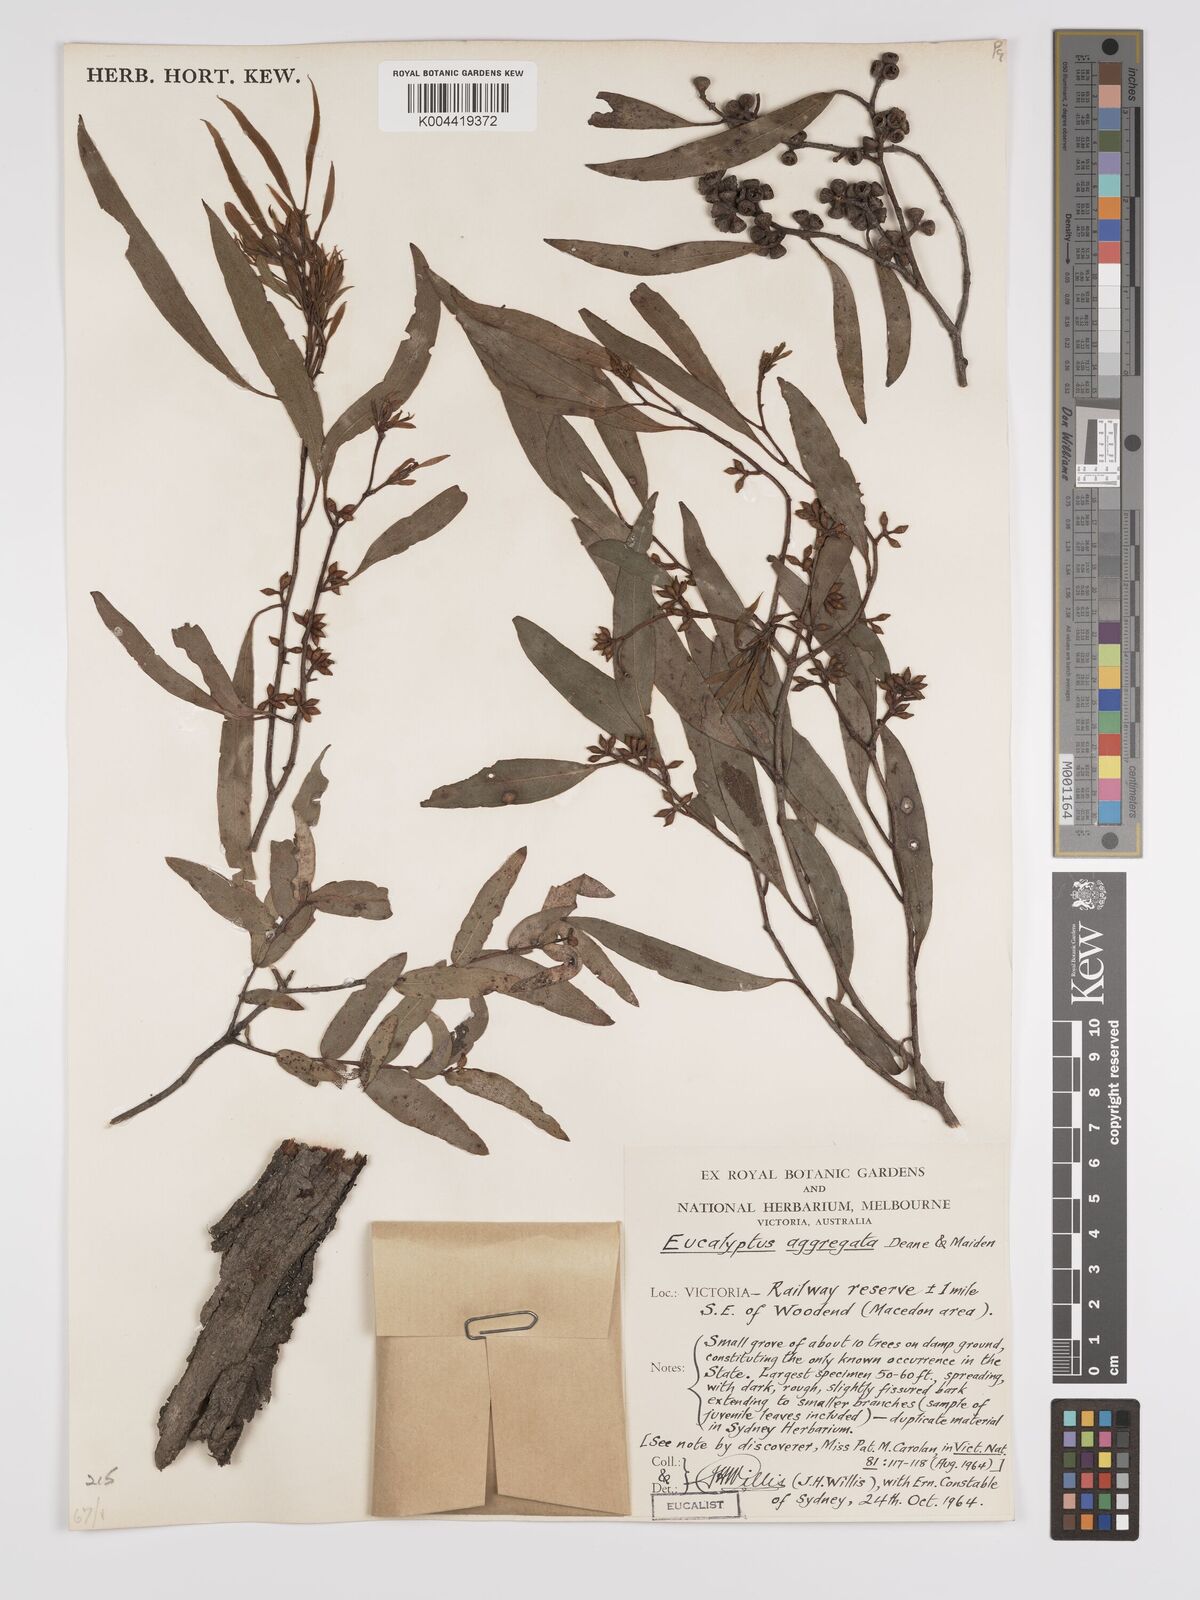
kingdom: Plantae
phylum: Tracheophyta
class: Magnoliopsida
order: Myrtales
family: Myrtaceae
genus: Eucalyptus
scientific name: Eucalyptus aggregata
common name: Black gum
